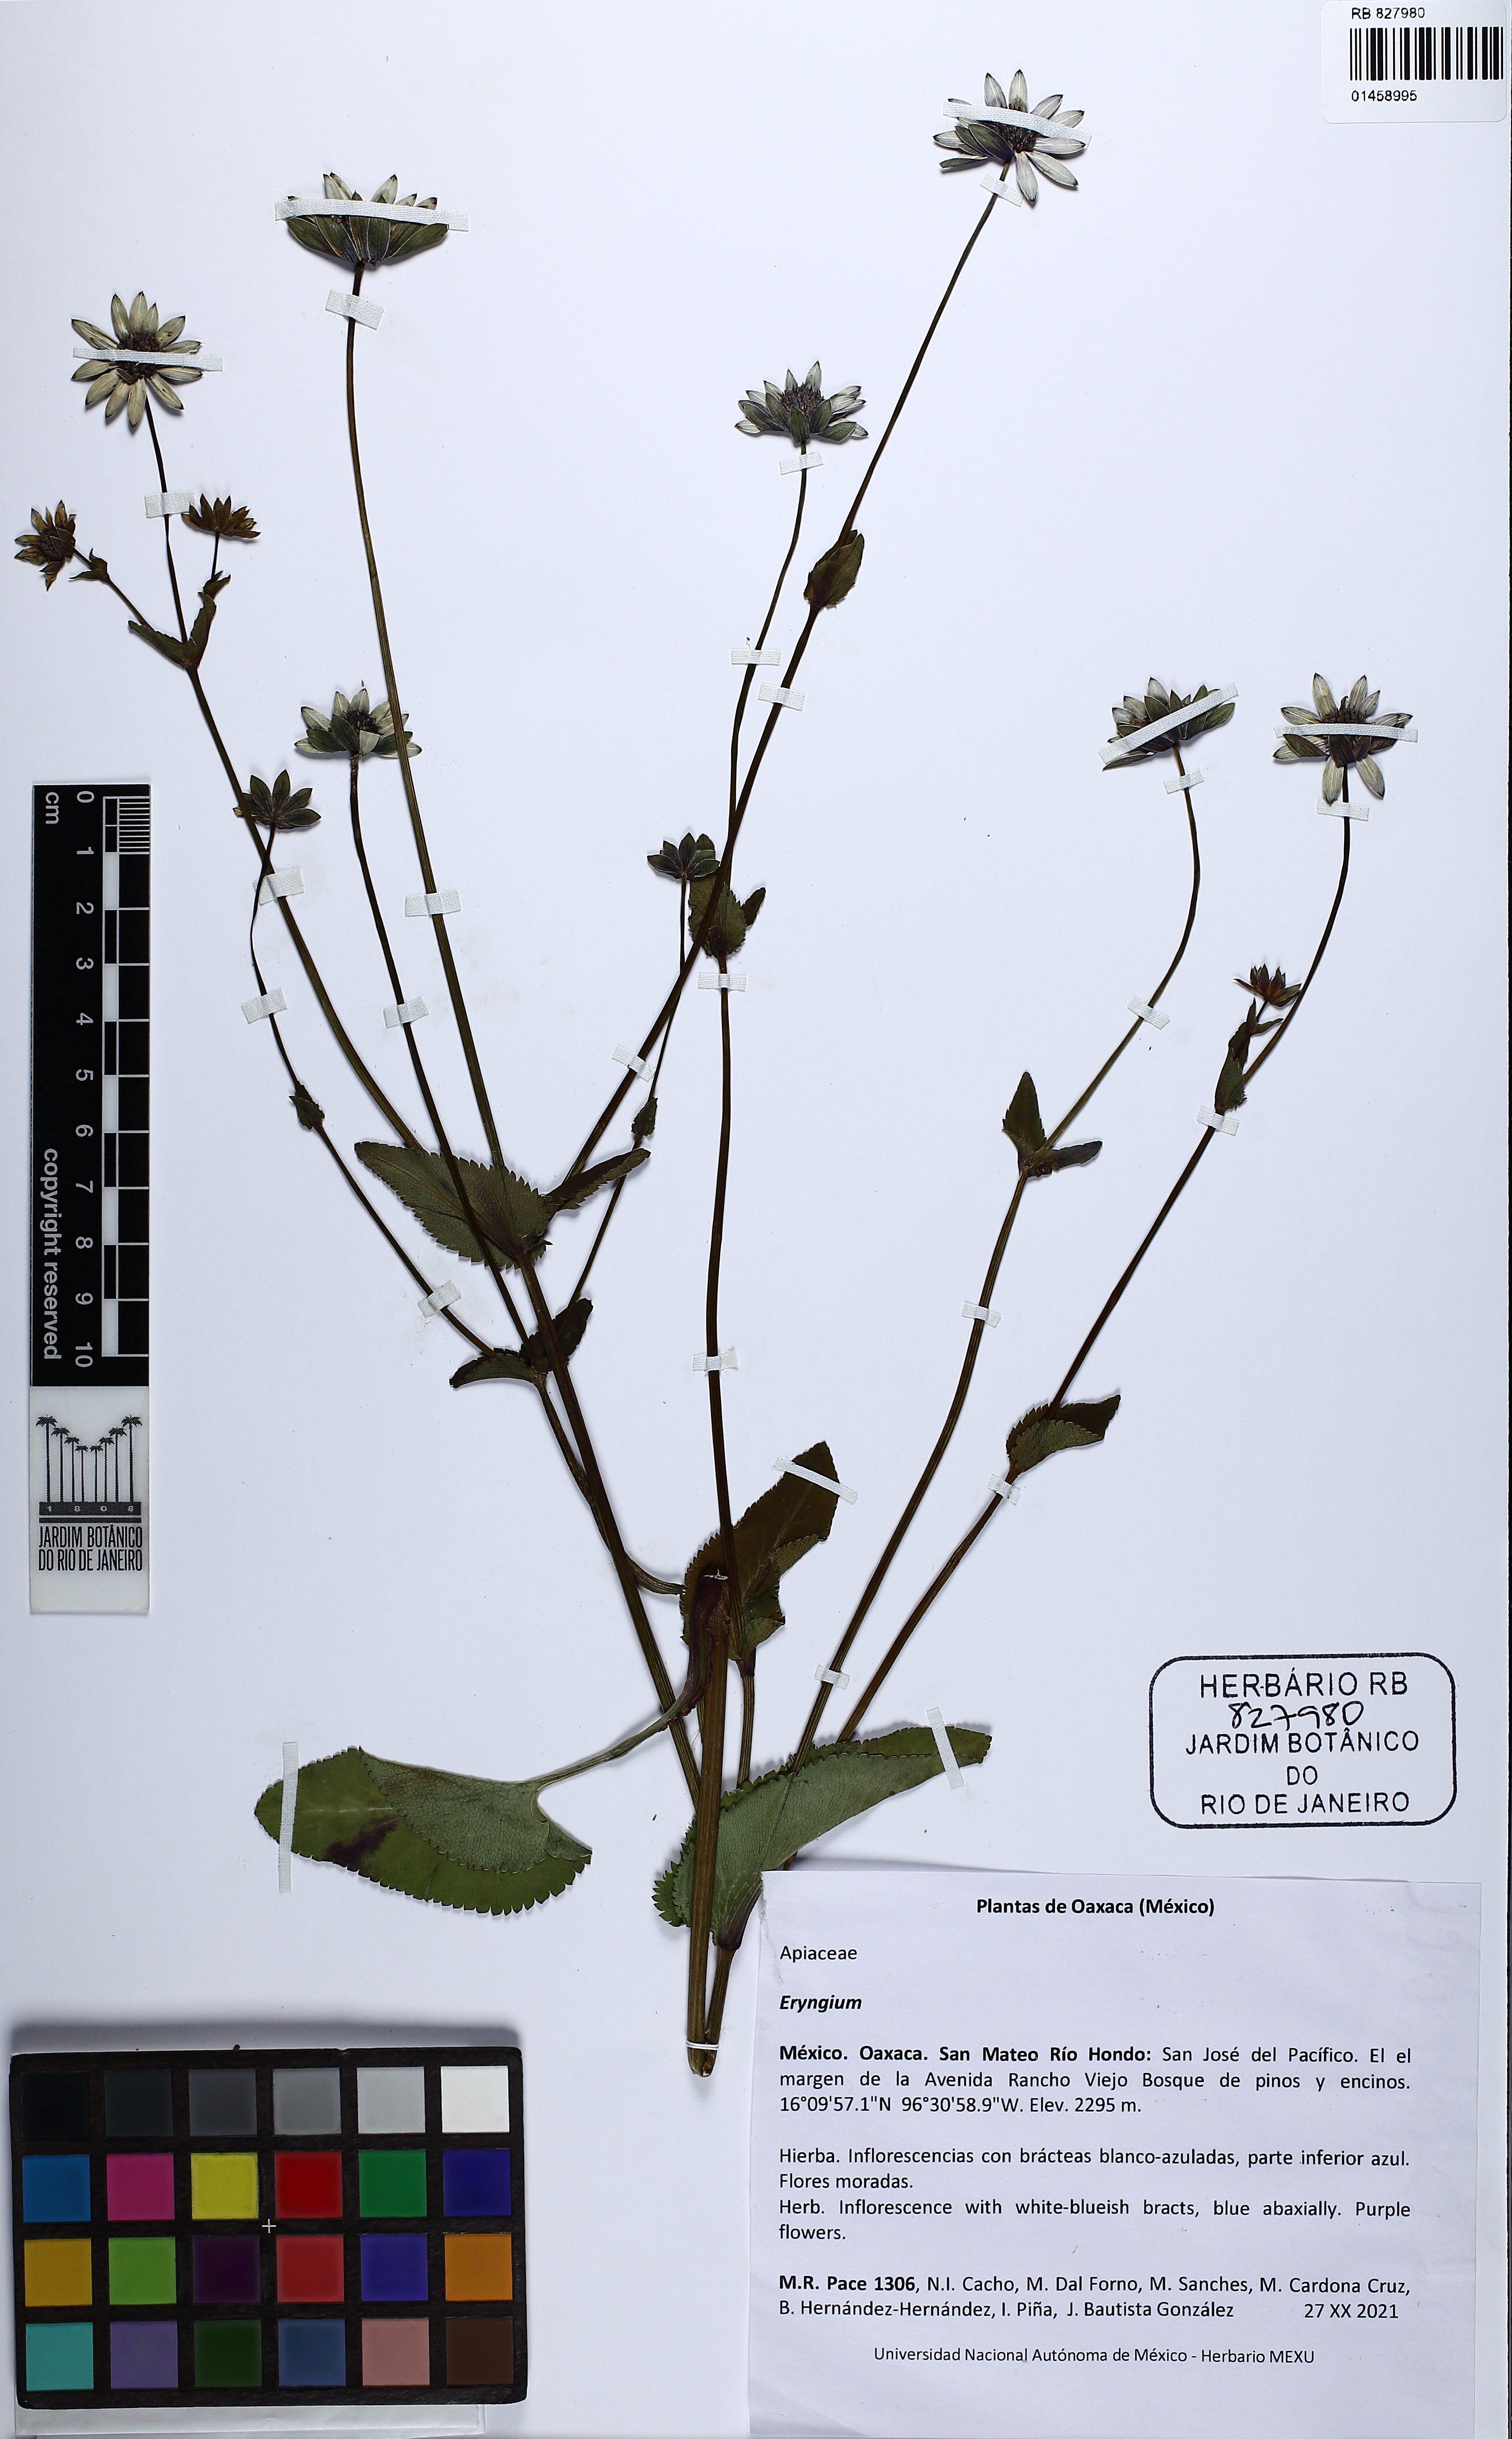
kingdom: Plantae
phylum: Tracheophyta
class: Magnoliopsida
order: Apiales
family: Apiaceae
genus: Eryngium
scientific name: Eryngium
